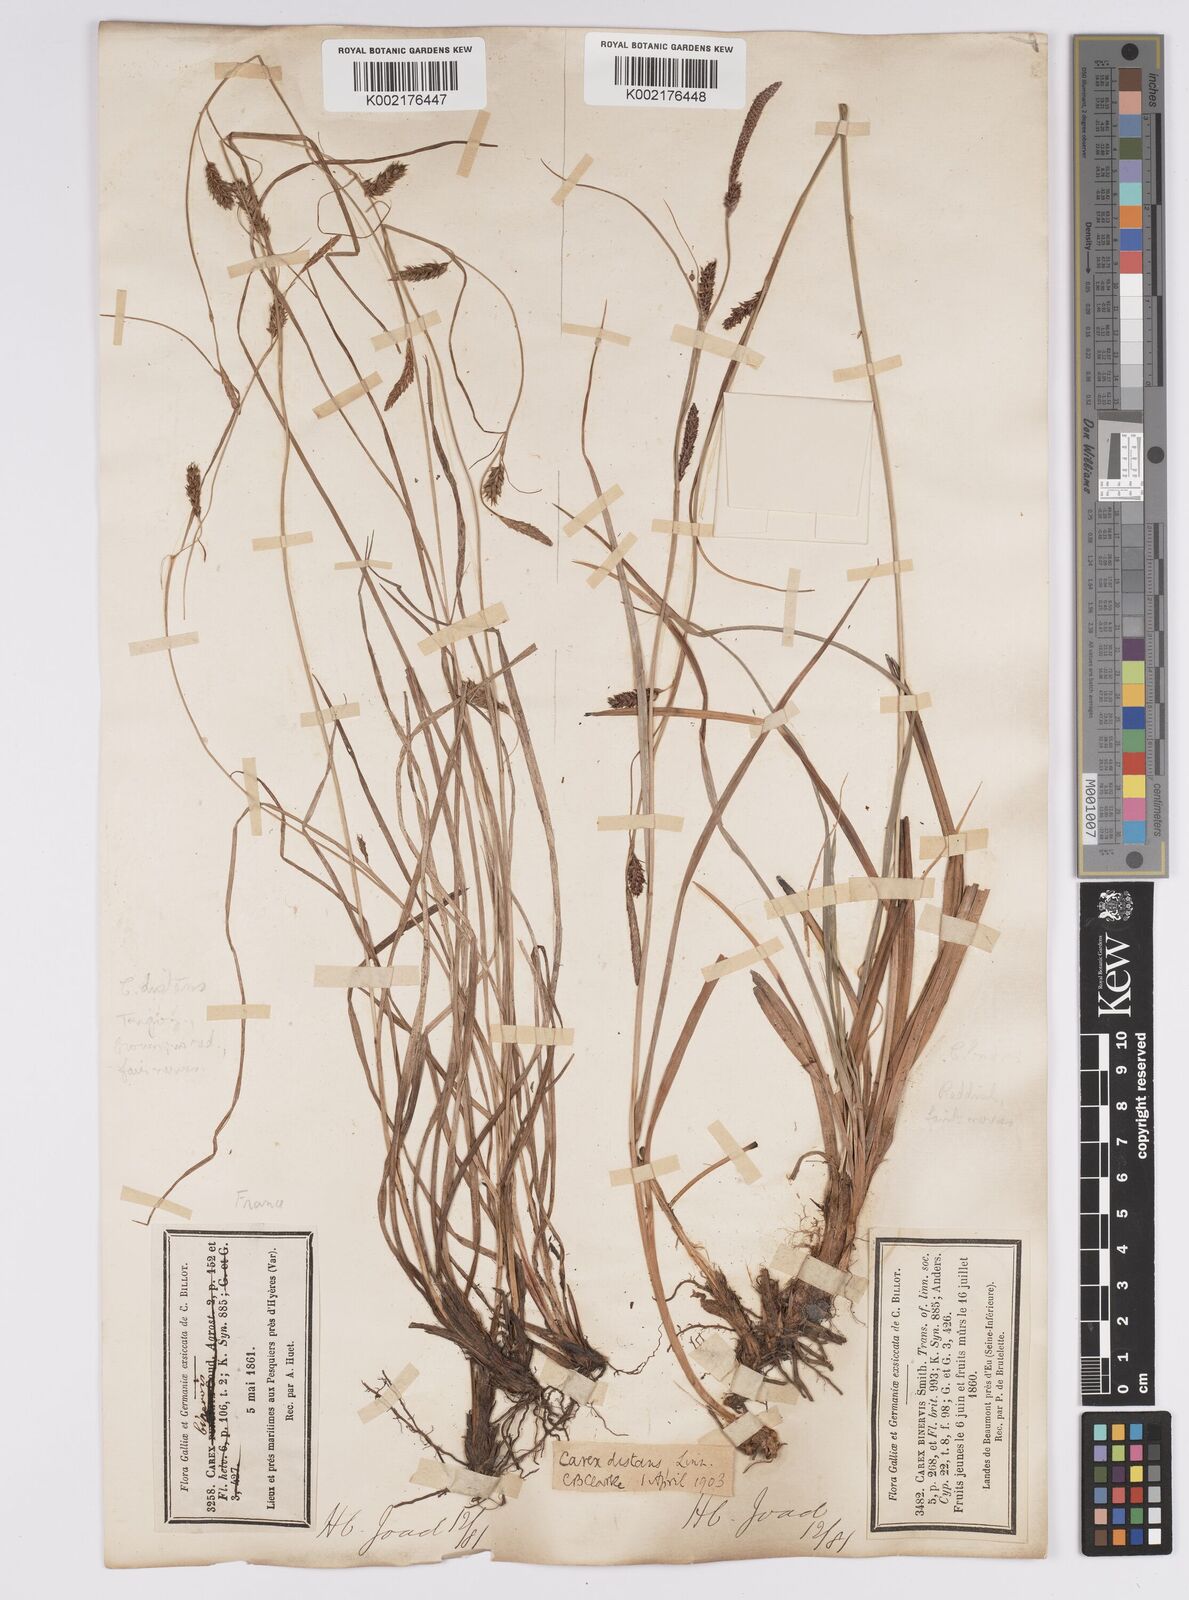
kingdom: Plantae
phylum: Tracheophyta
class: Liliopsida
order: Poales
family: Cyperaceae
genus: Carex
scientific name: Carex distans
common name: Distant sedge
